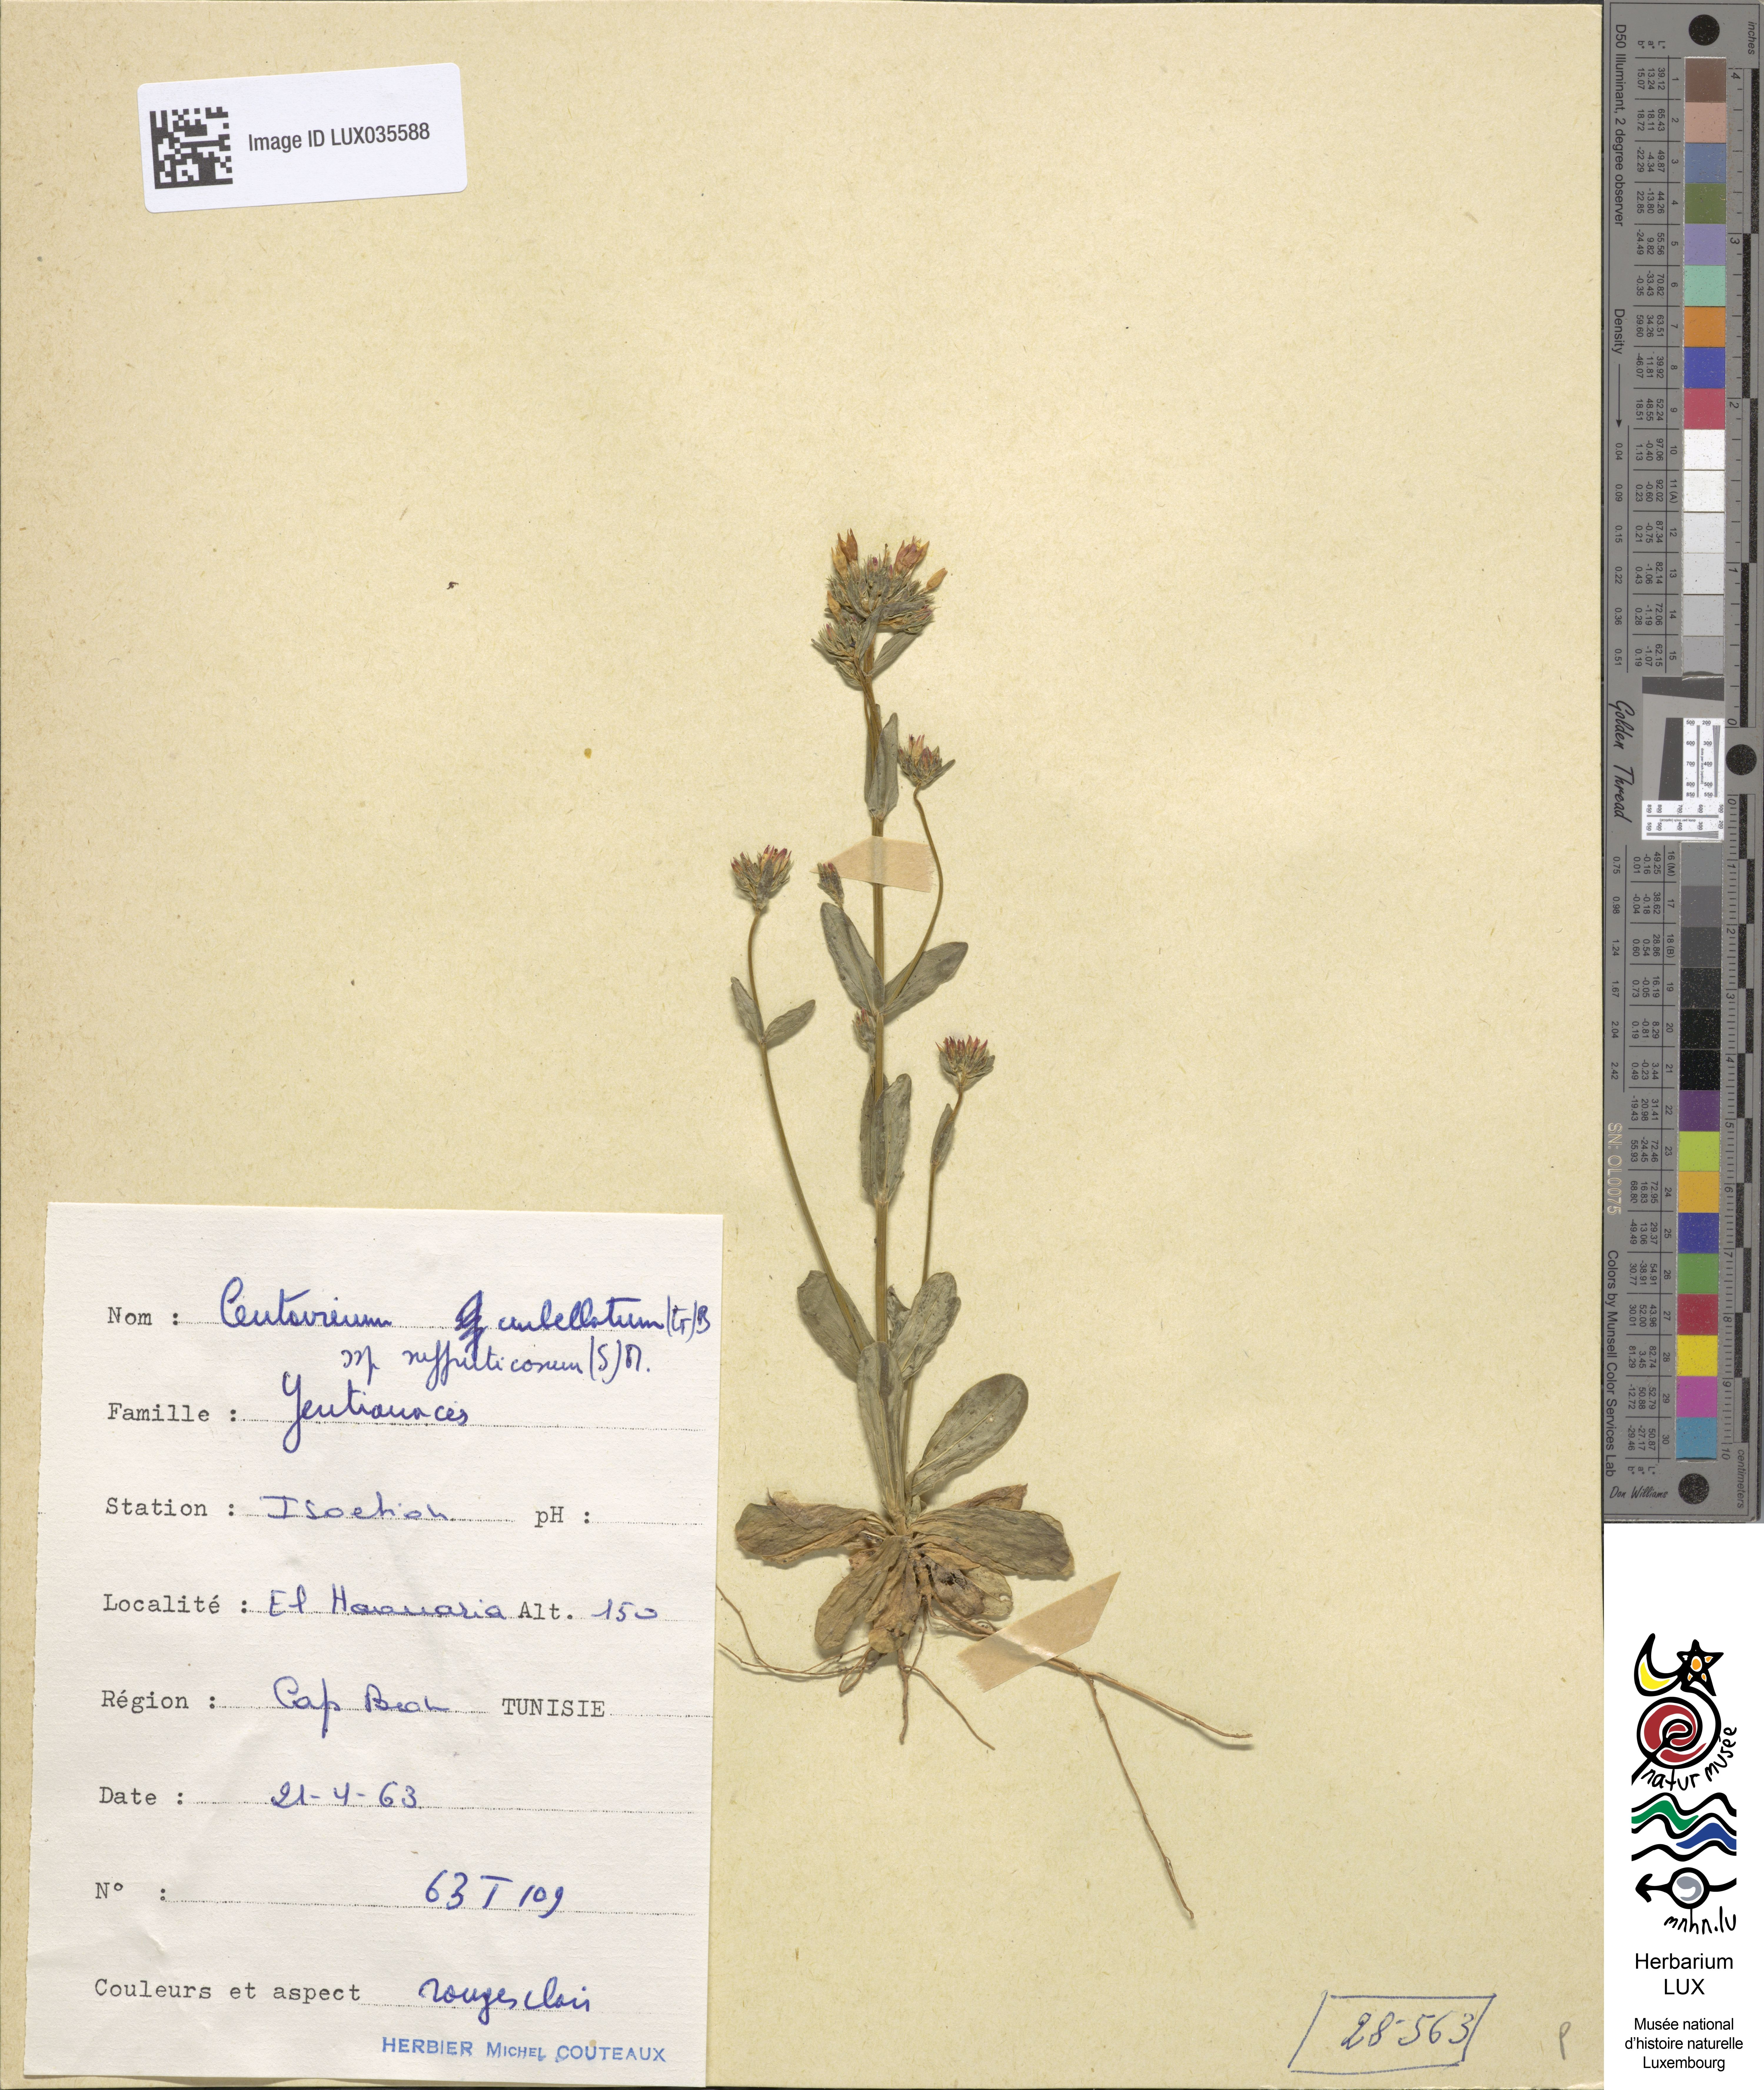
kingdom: Plantae
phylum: Tracheophyta
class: Magnoliopsida
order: Gentianales
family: Gentianaceae
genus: Centaurium
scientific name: Centaurium suffruticosum
